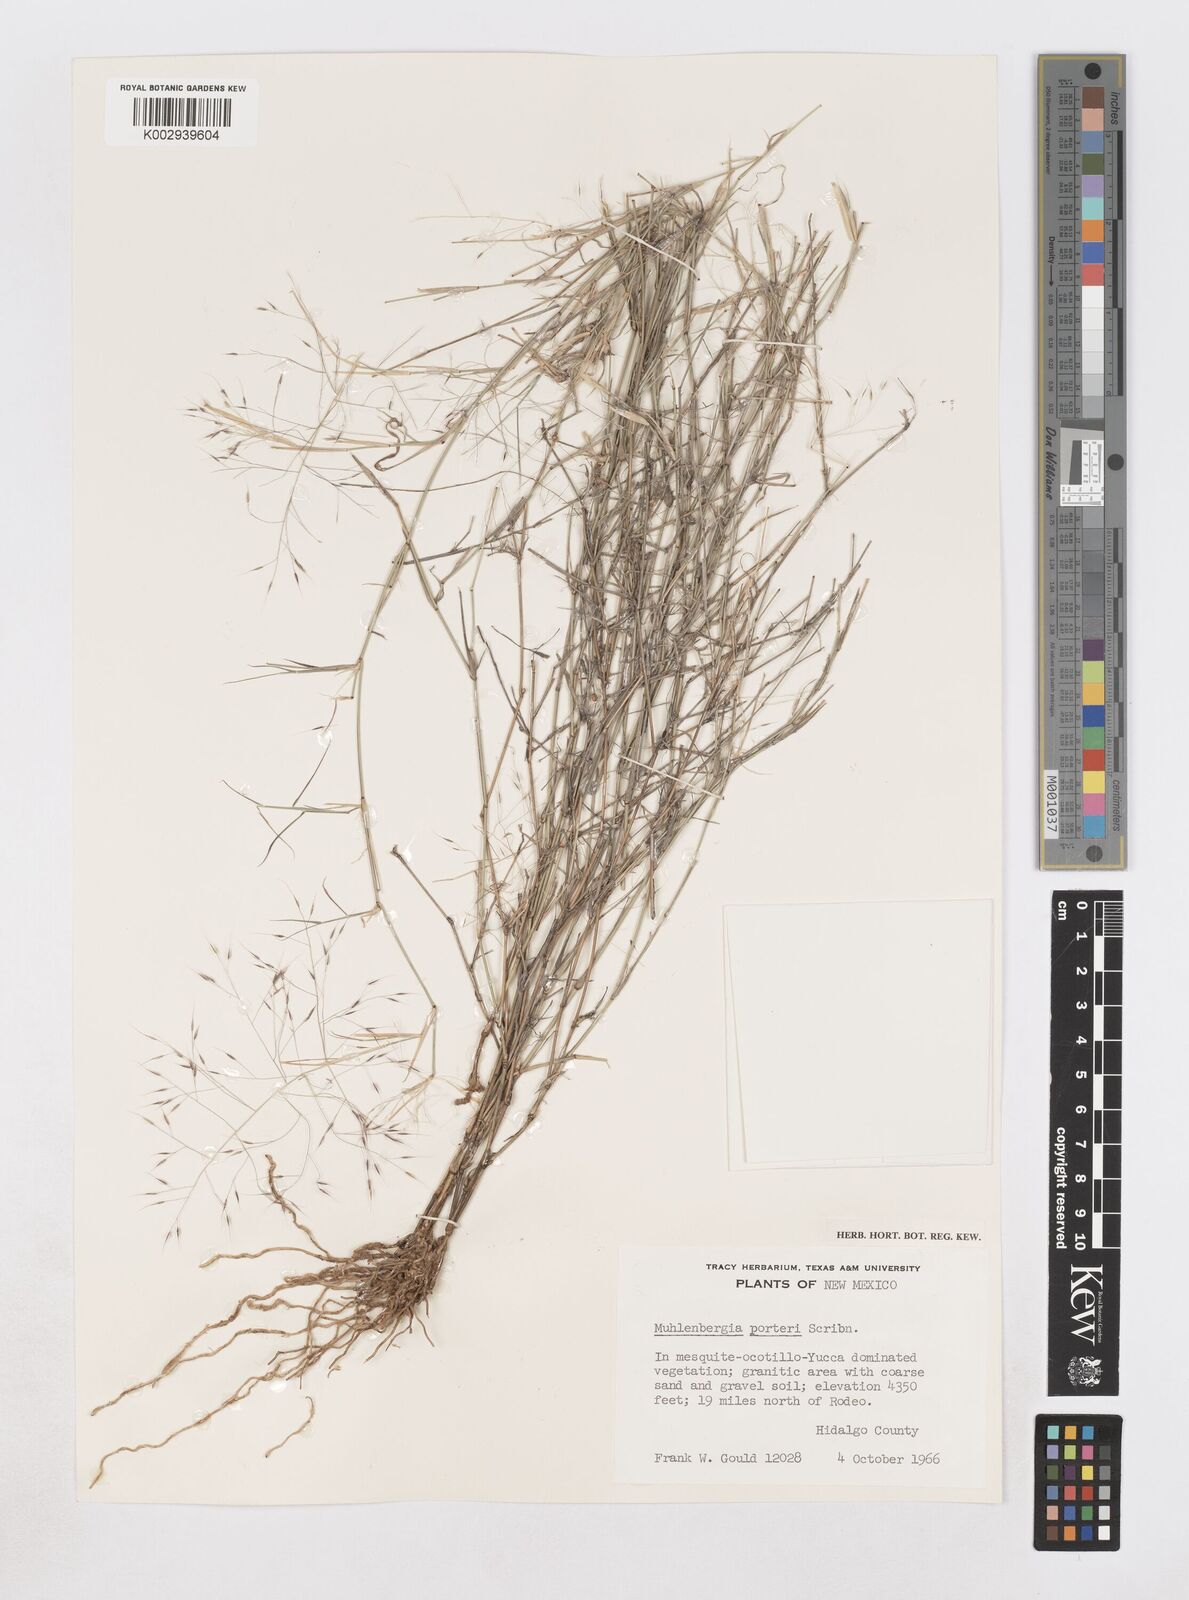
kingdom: Plantae
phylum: Tracheophyta
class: Liliopsida
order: Poales
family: Poaceae
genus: Muhlenbergia
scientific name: Muhlenbergia porteri
